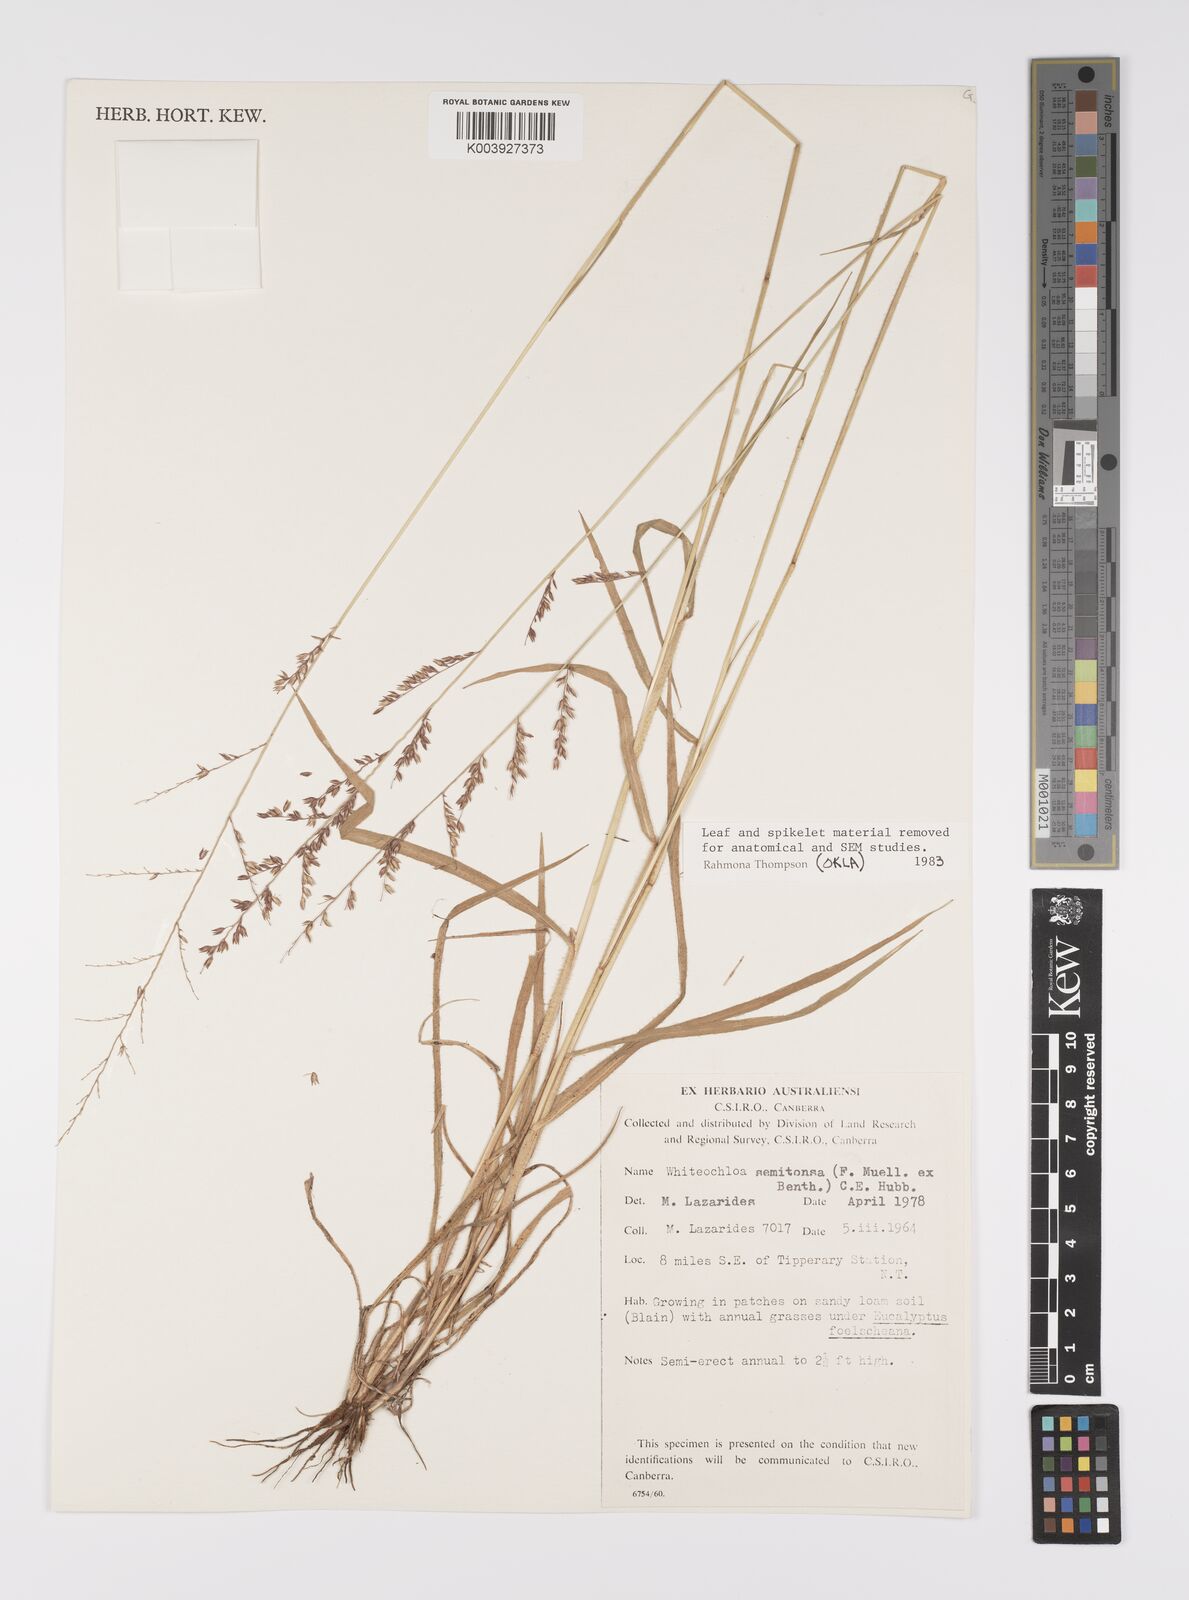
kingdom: Plantae
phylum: Tracheophyta
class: Liliopsida
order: Poales
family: Poaceae
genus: Whiteochloa
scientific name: Whiteochloa semitonsa
